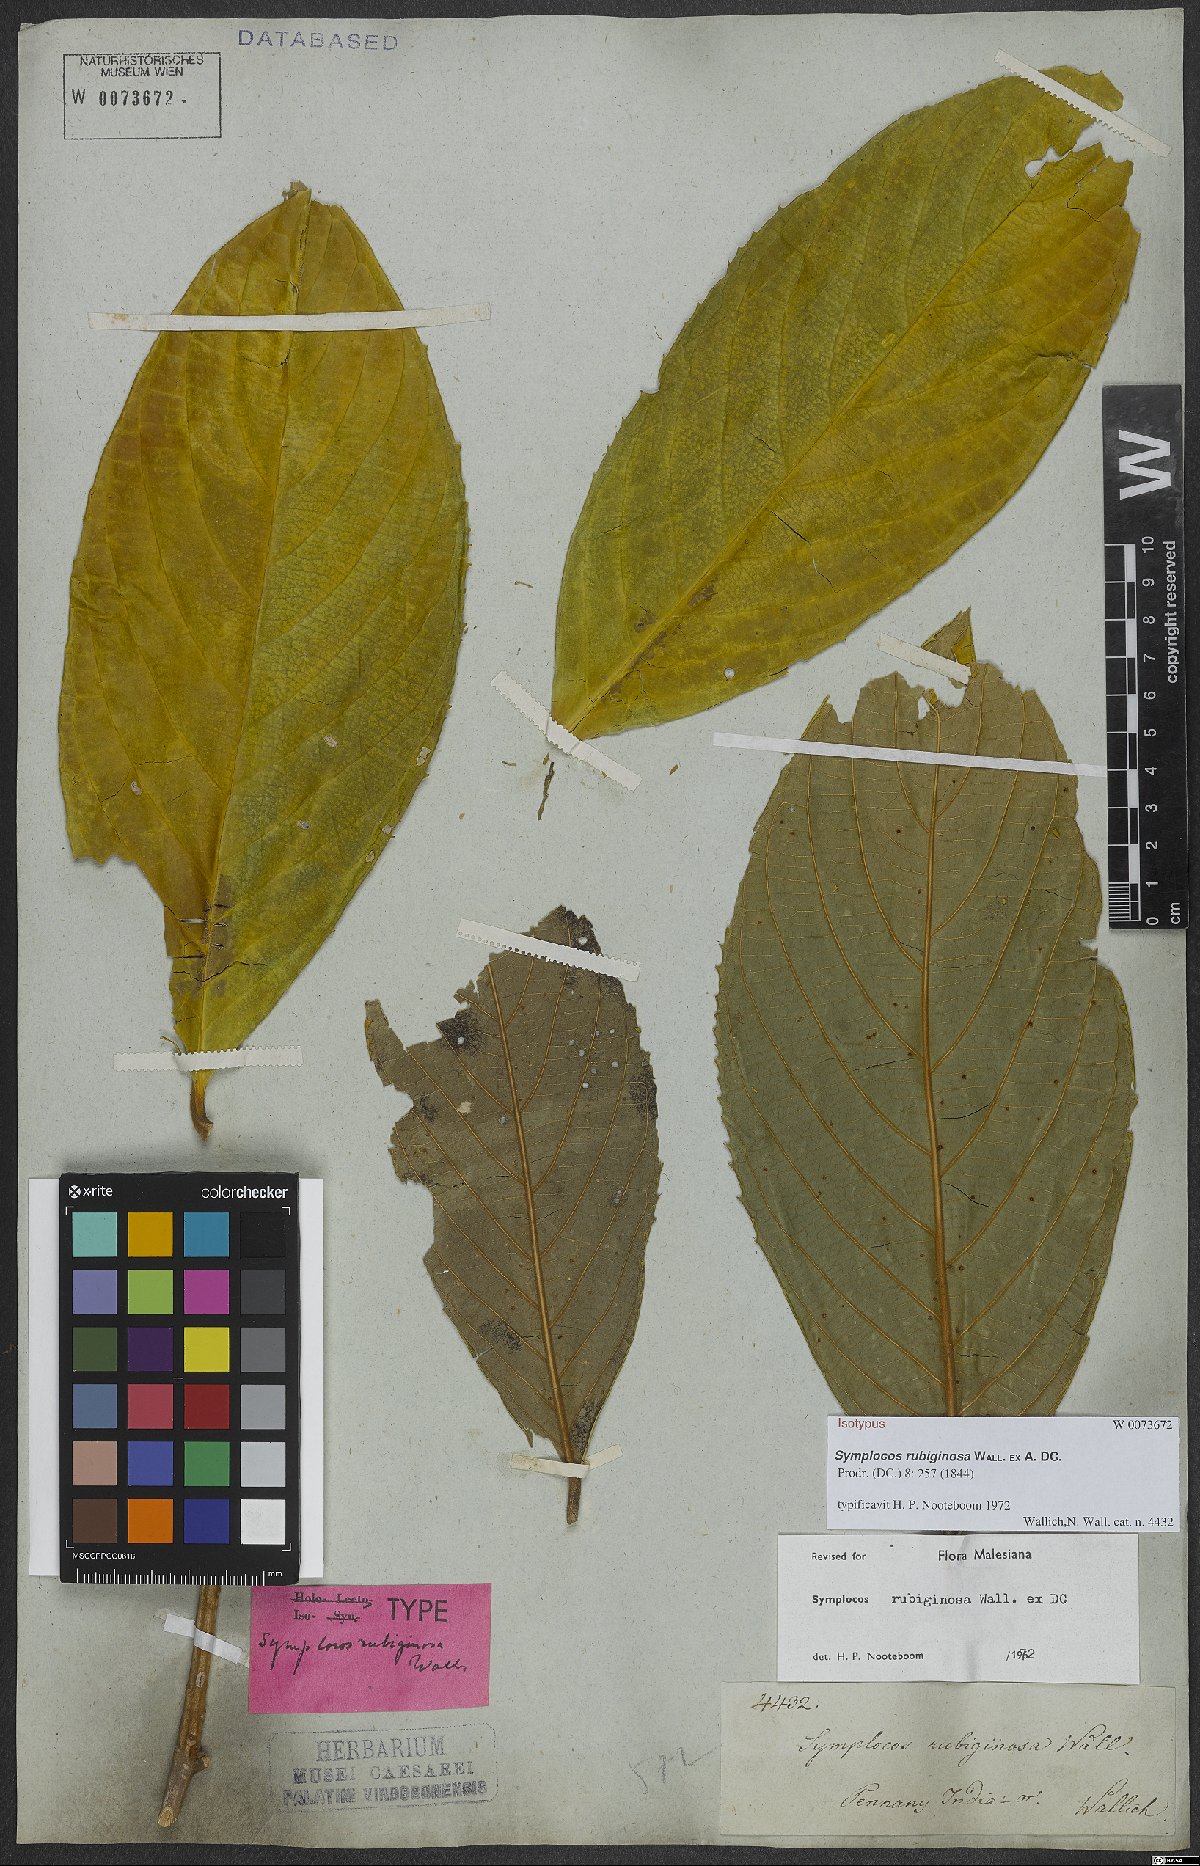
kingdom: Plantae
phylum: Tracheophyta
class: Magnoliopsida
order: Ericales
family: Symplocaceae
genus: Symplocos
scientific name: Symplocos rubiginosa
